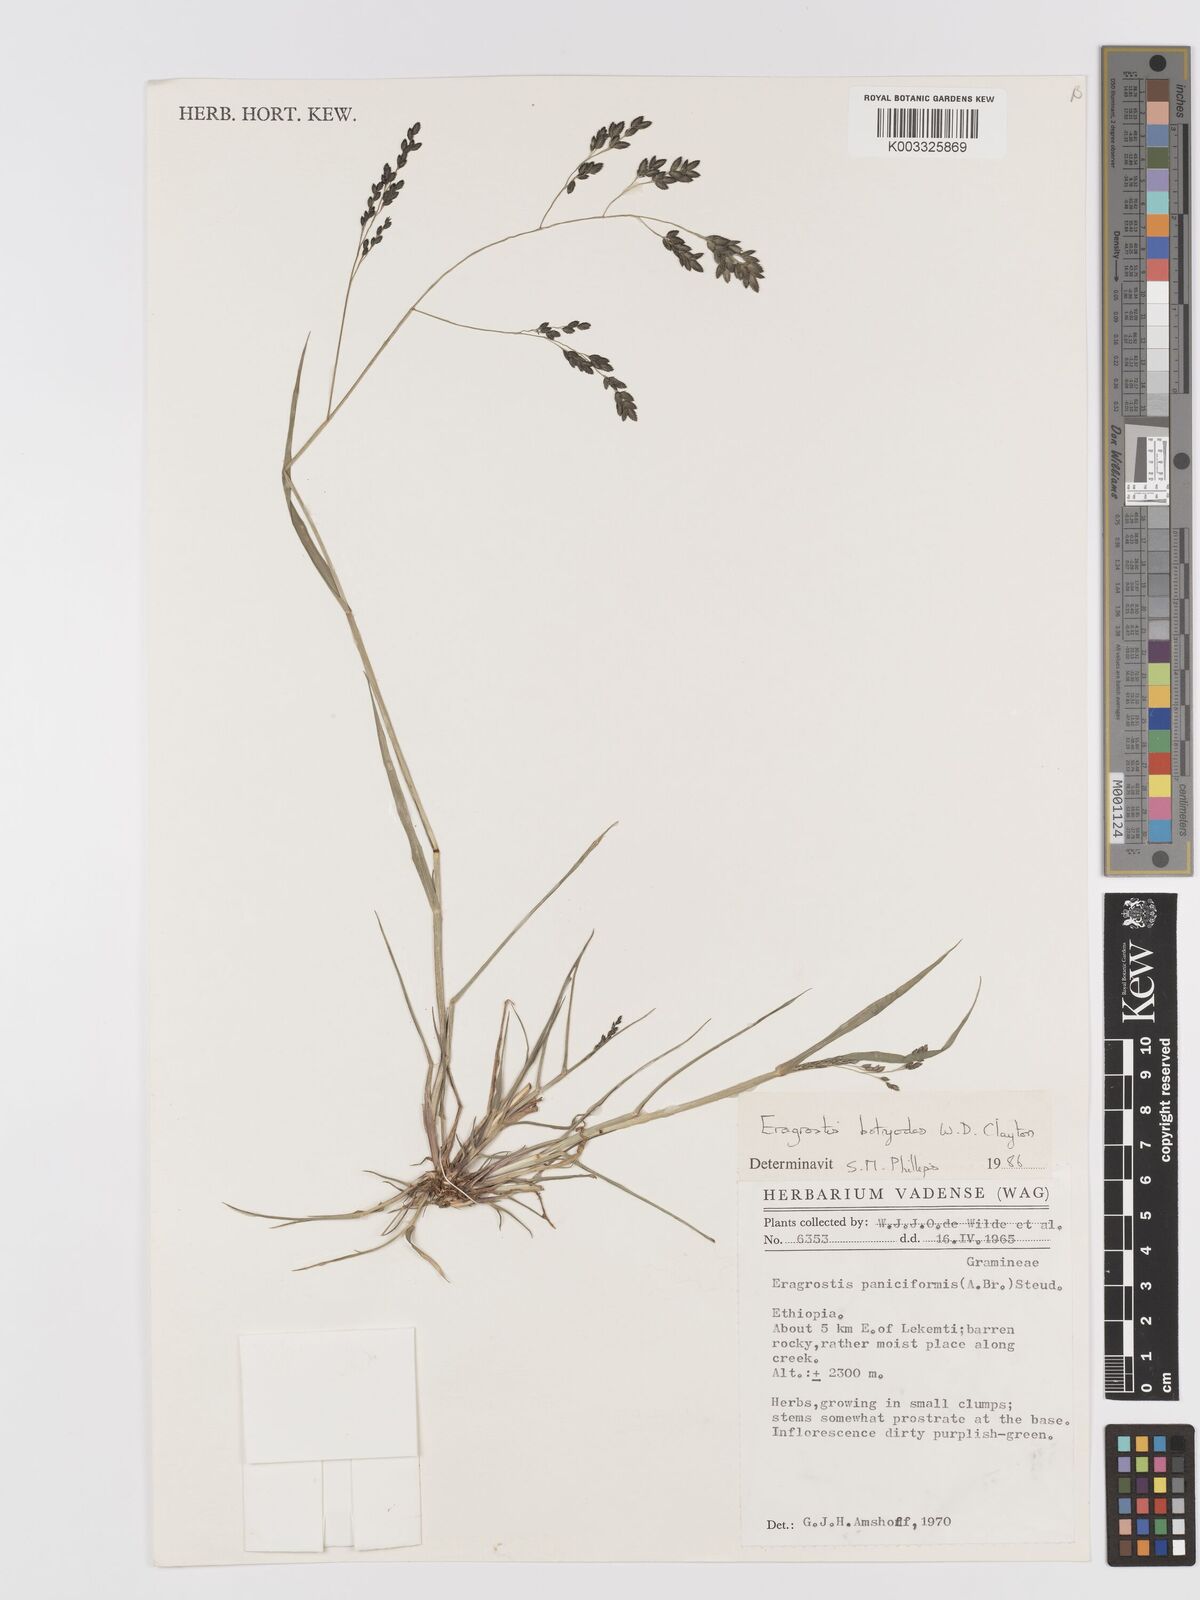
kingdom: Plantae
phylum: Tracheophyta
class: Liliopsida
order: Poales
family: Poaceae
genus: Eragrostis
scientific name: Eragrostis botryodes
